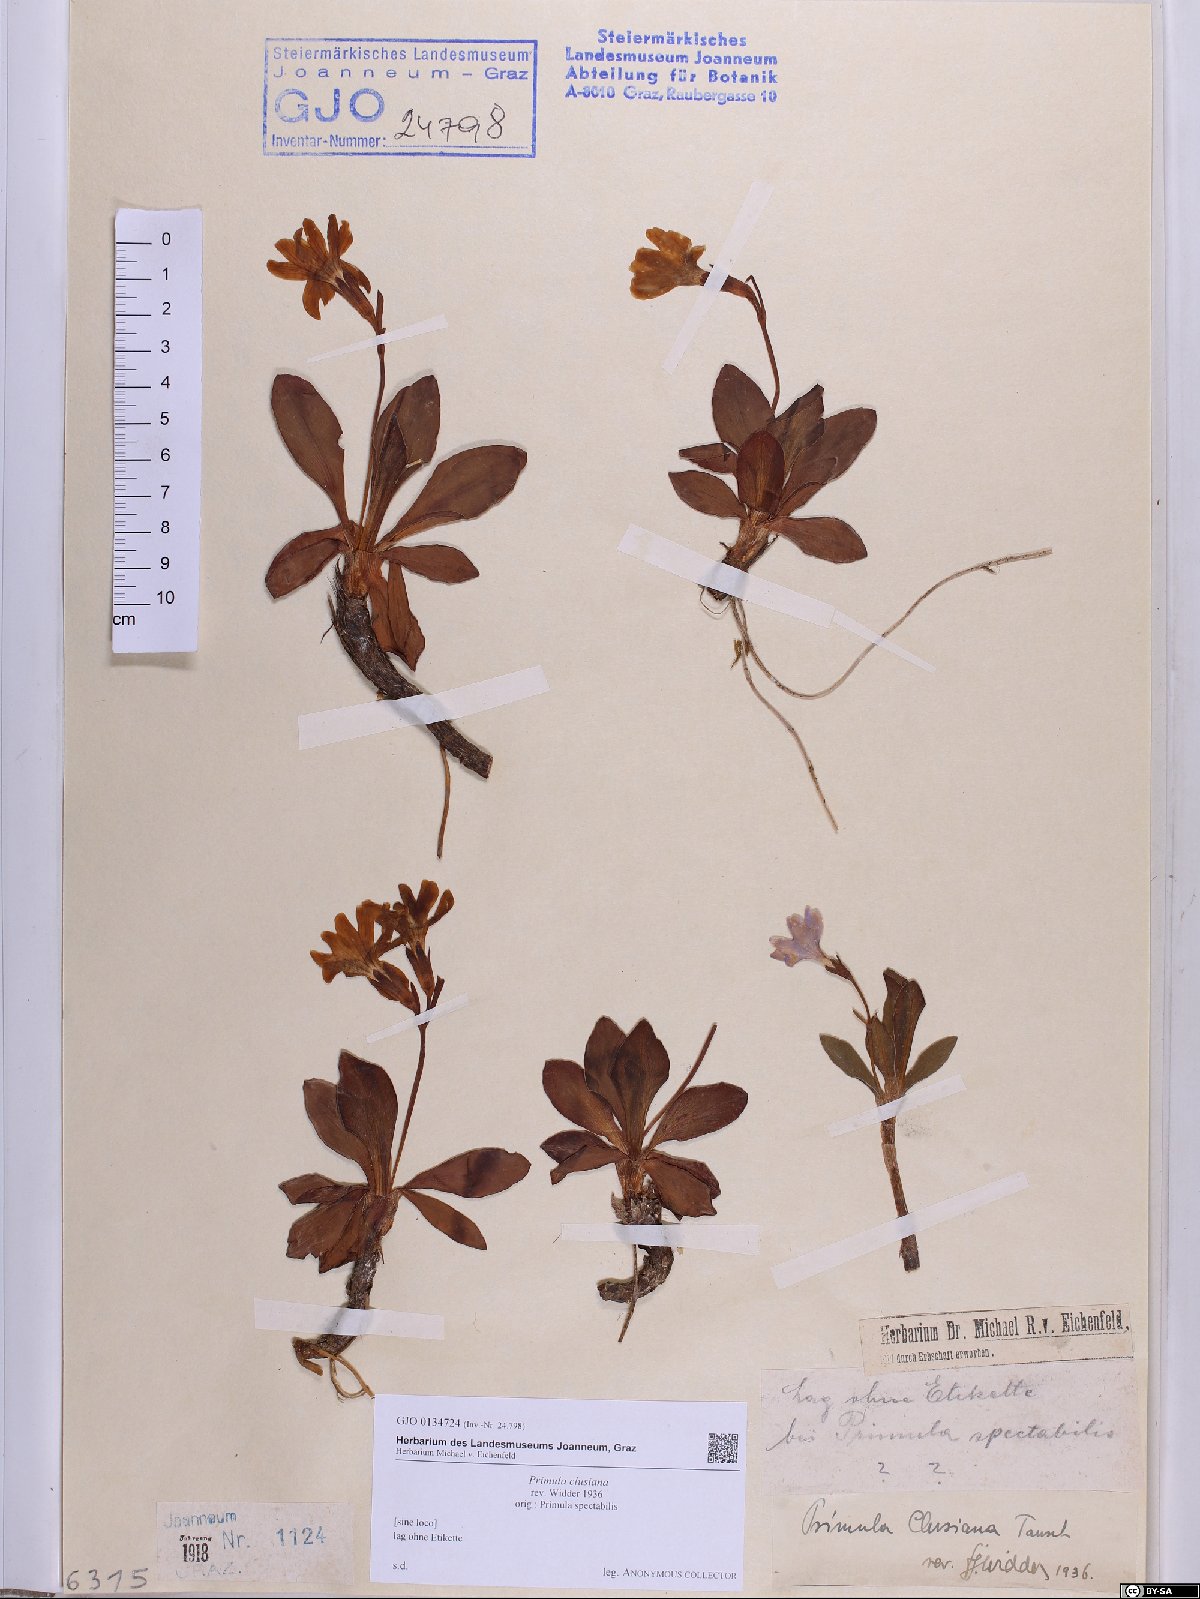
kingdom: Plantae
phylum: Tracheophyta
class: Magnoliopsida
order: Ericales
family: Primulaceae
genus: Primula
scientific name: Primula clusiana
